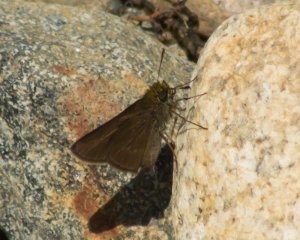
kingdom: Animalia
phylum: Arthropoda
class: Insecta
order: Lepidoptera
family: Hesperiidae
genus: Euphyes
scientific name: Euphyes vestris
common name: Dun Skipper
